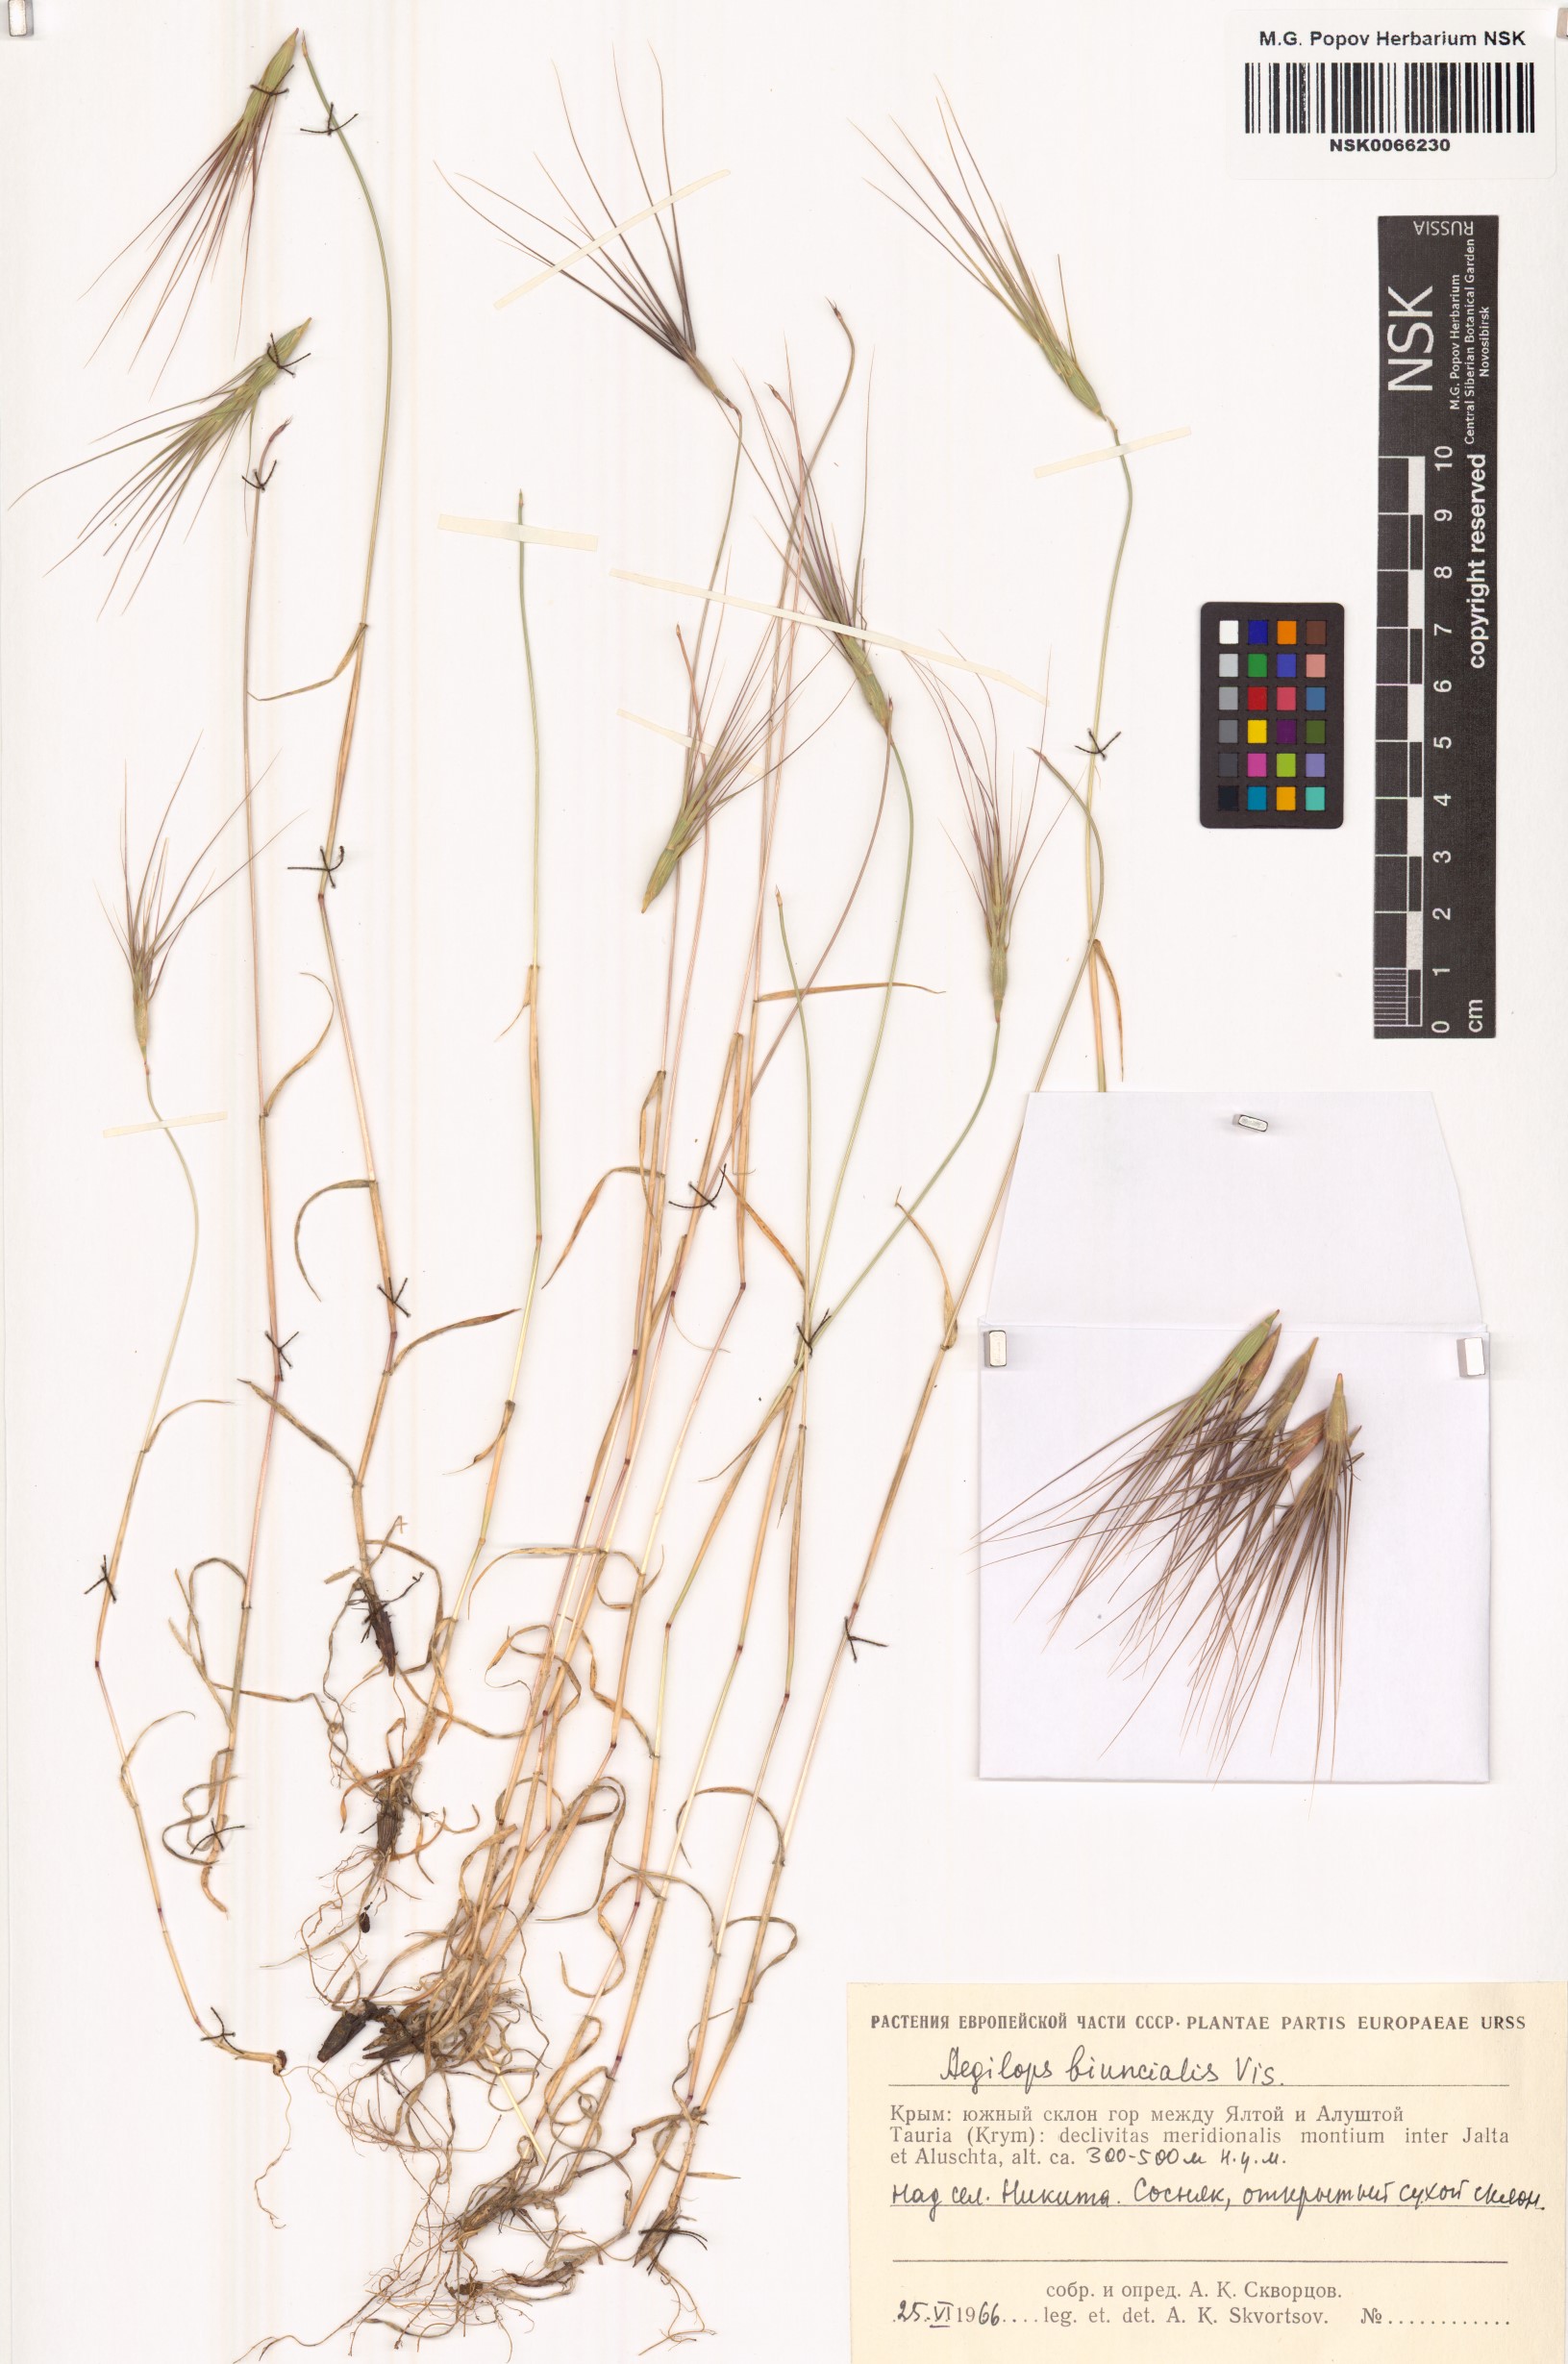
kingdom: Plantae
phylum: Tracheophyta
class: Liliopsida
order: Poales
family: Poaceae
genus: Aegilops
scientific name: Aegilops biuncialis
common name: Mediterranean aegilops
